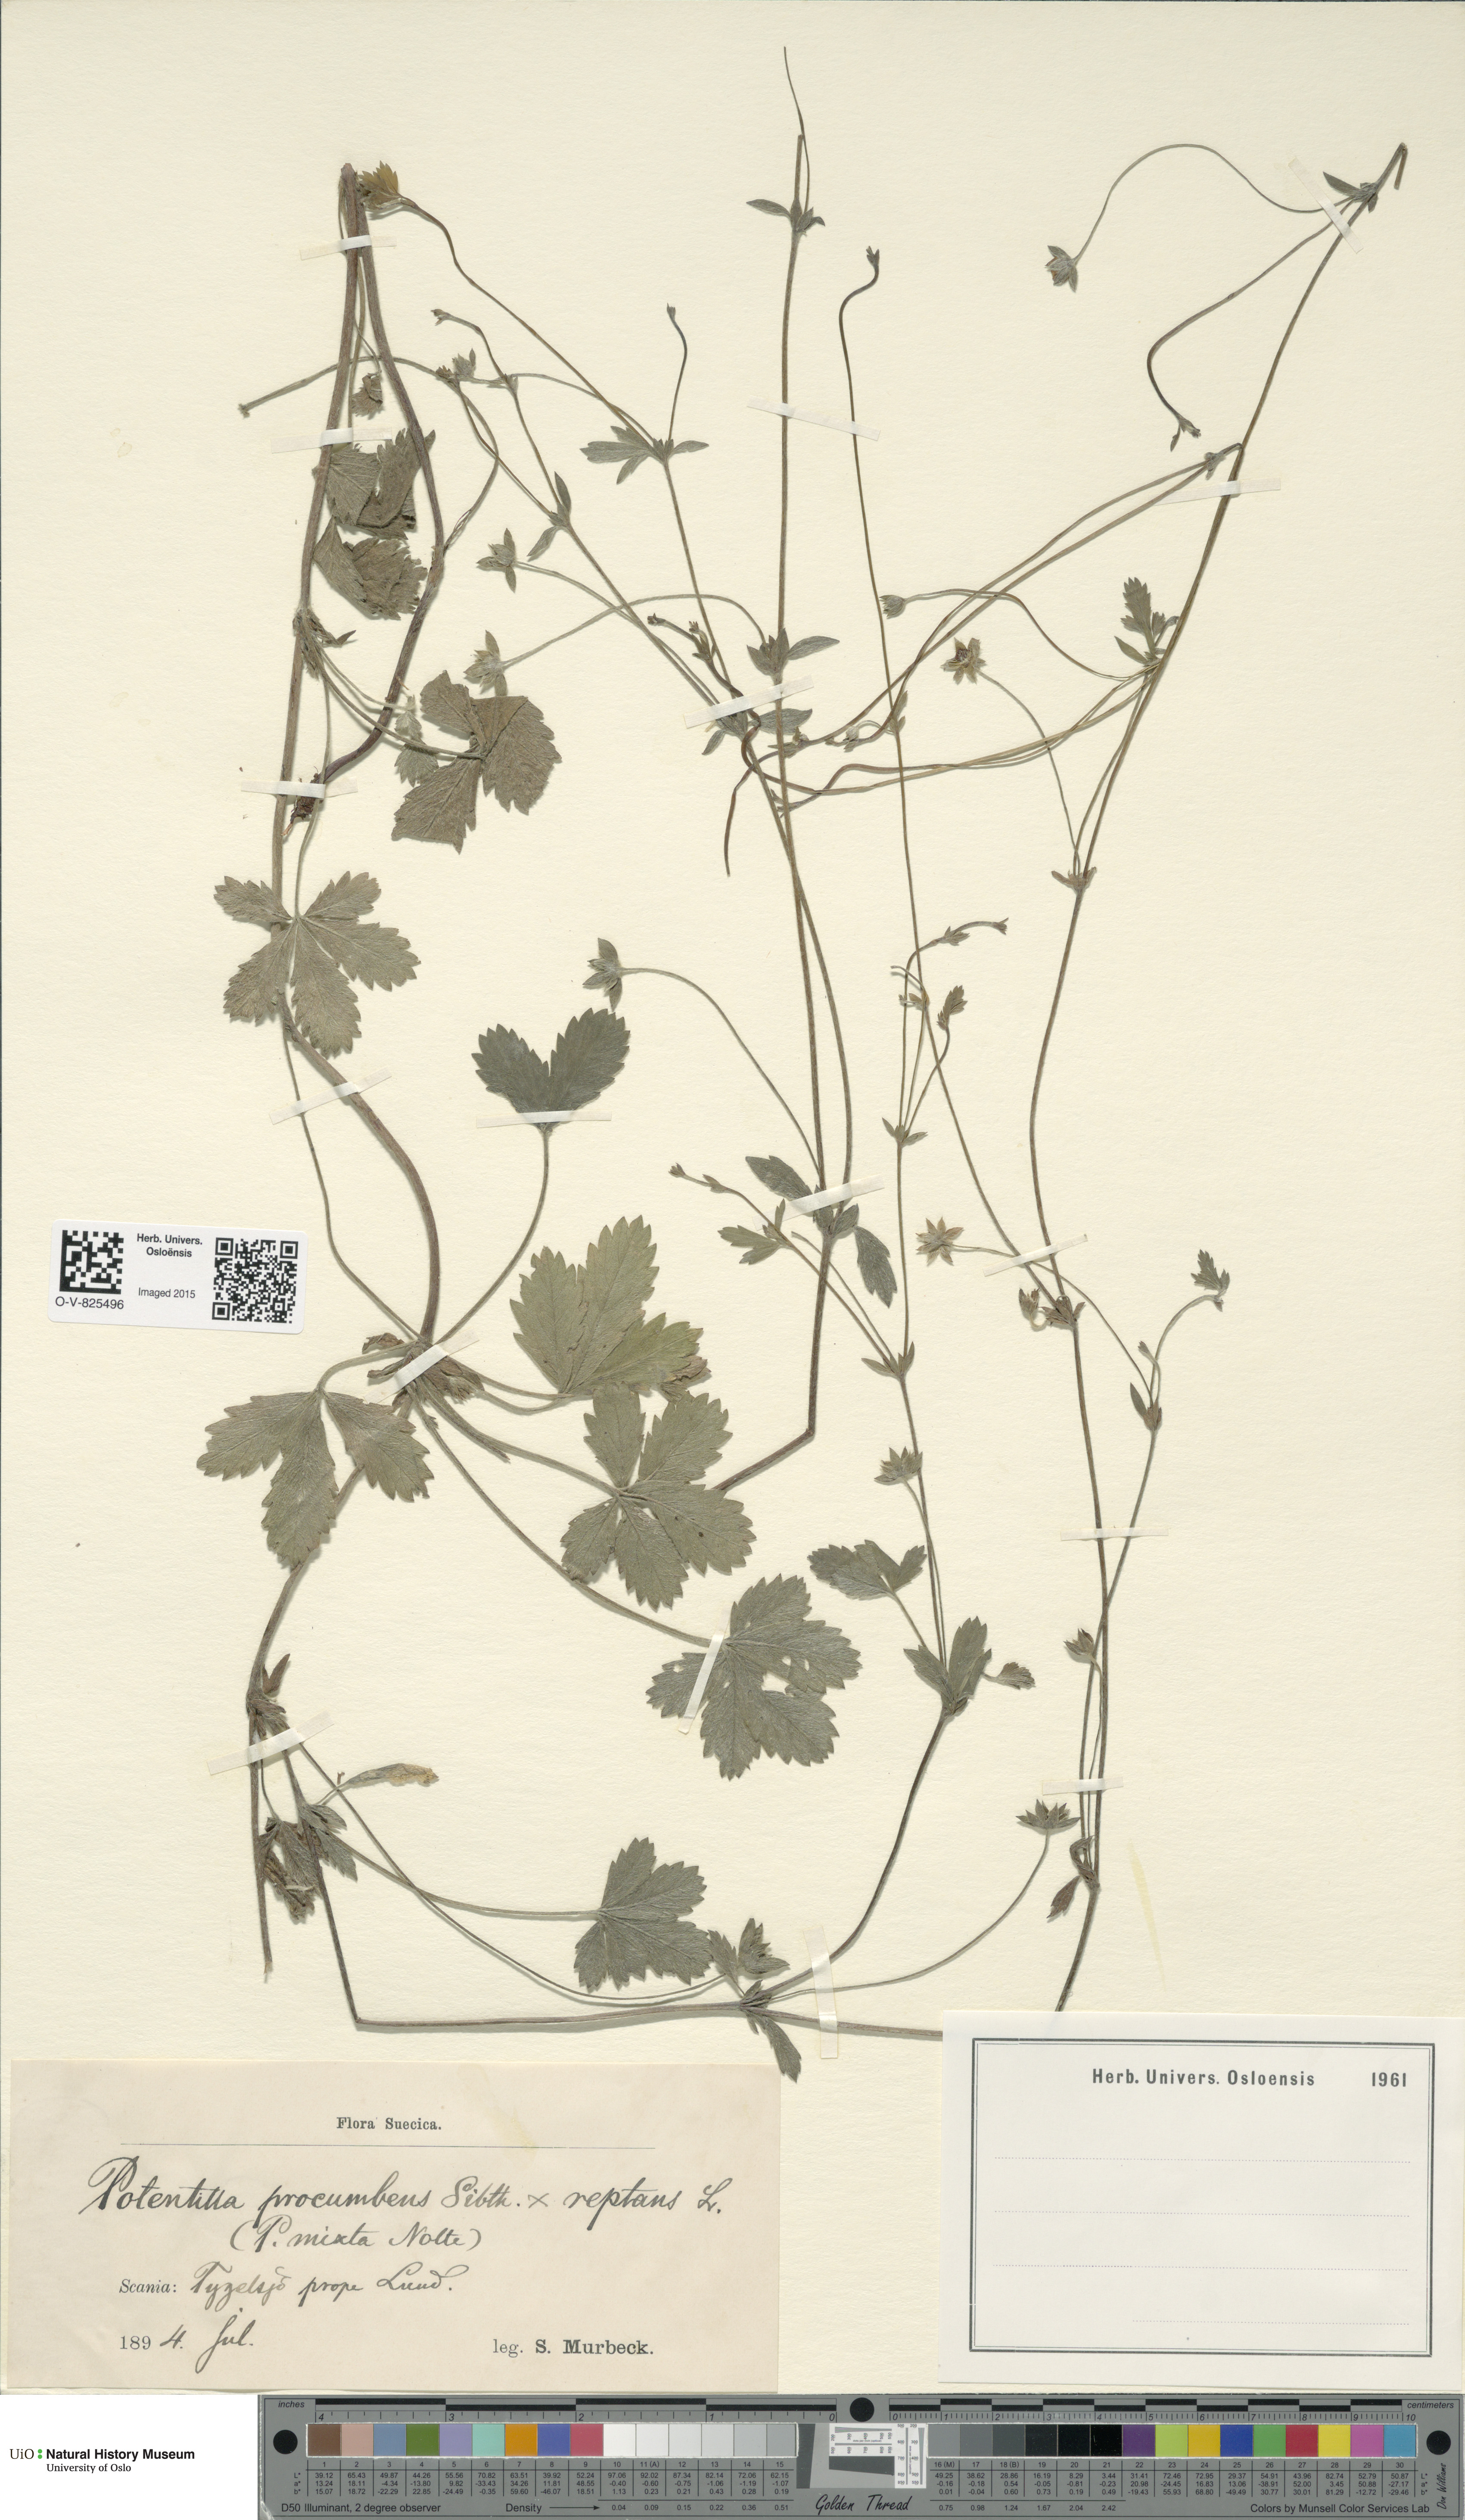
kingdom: Plantae
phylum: Tracheophyta
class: Magnoliopsida
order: Rosales
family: Rosaceae
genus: Potentilla
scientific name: Potentilla
